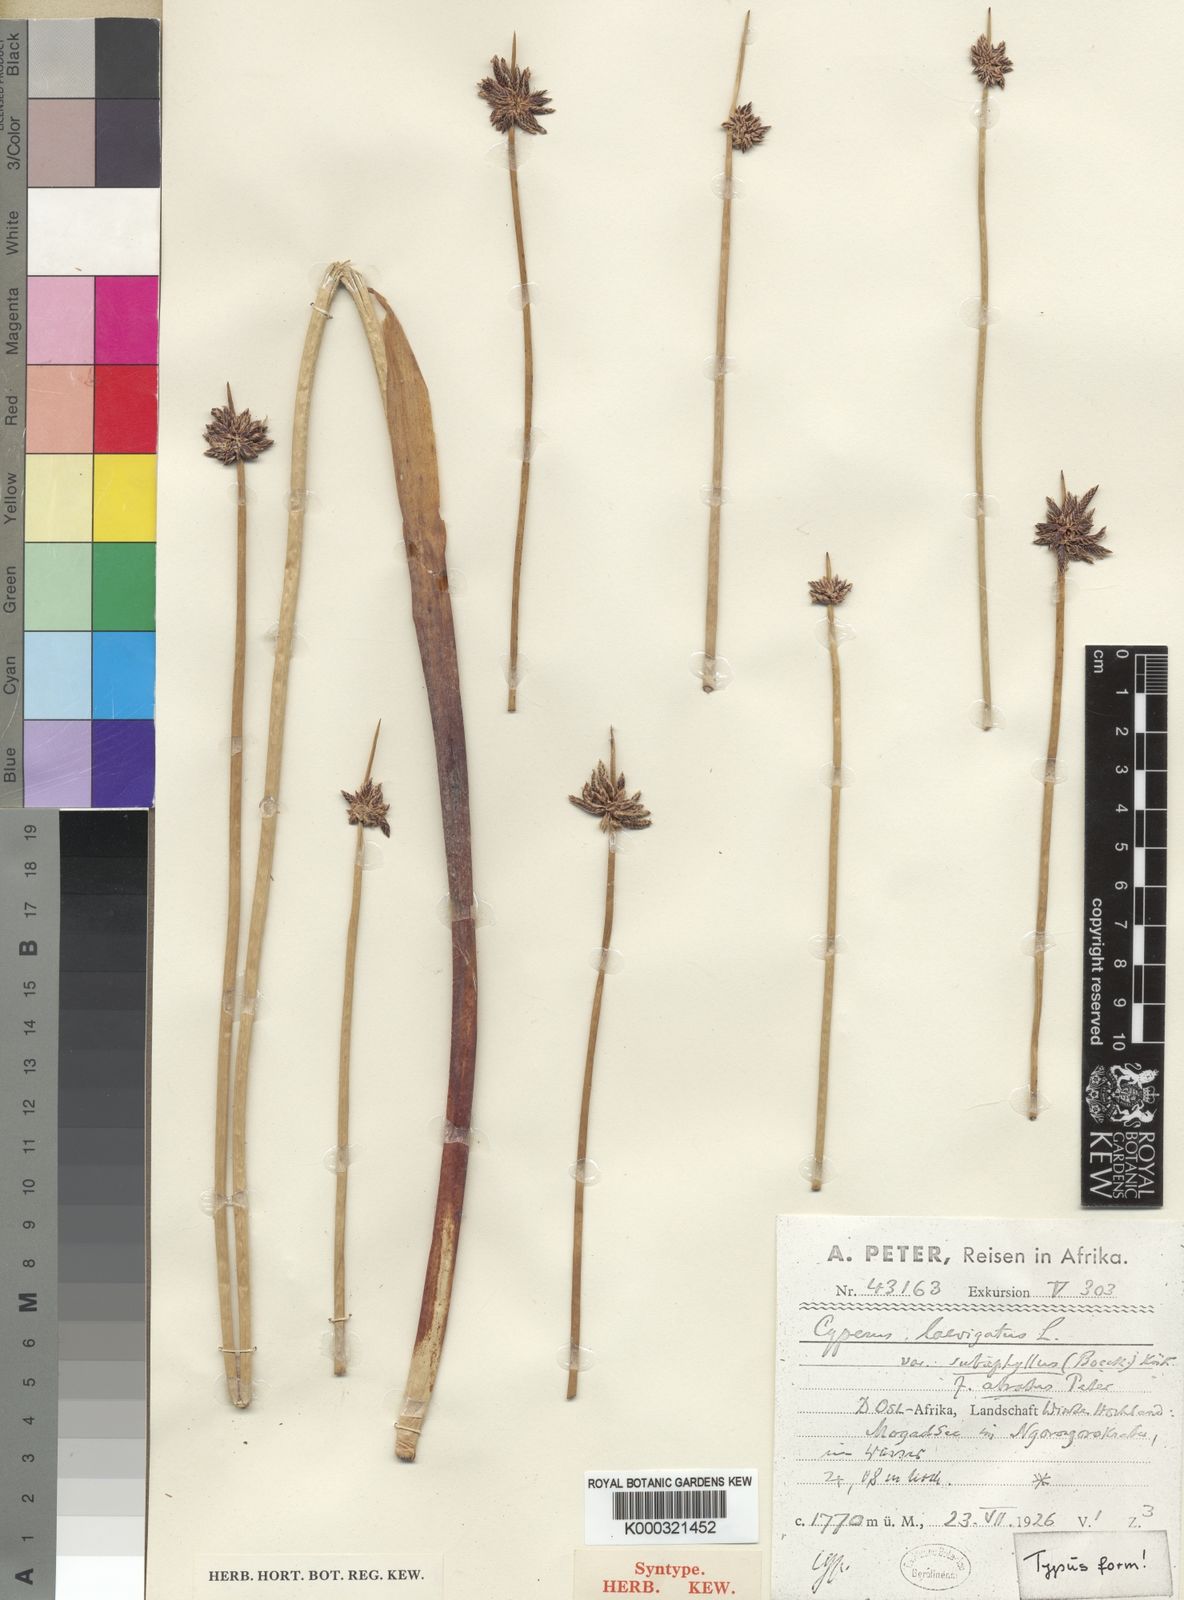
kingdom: Plantae
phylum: Tracheophyta
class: Liliopsida
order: Poales
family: Cyperaceae
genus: Cyperus
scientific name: Cyperus laevigatus
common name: Smooth flat sedge
